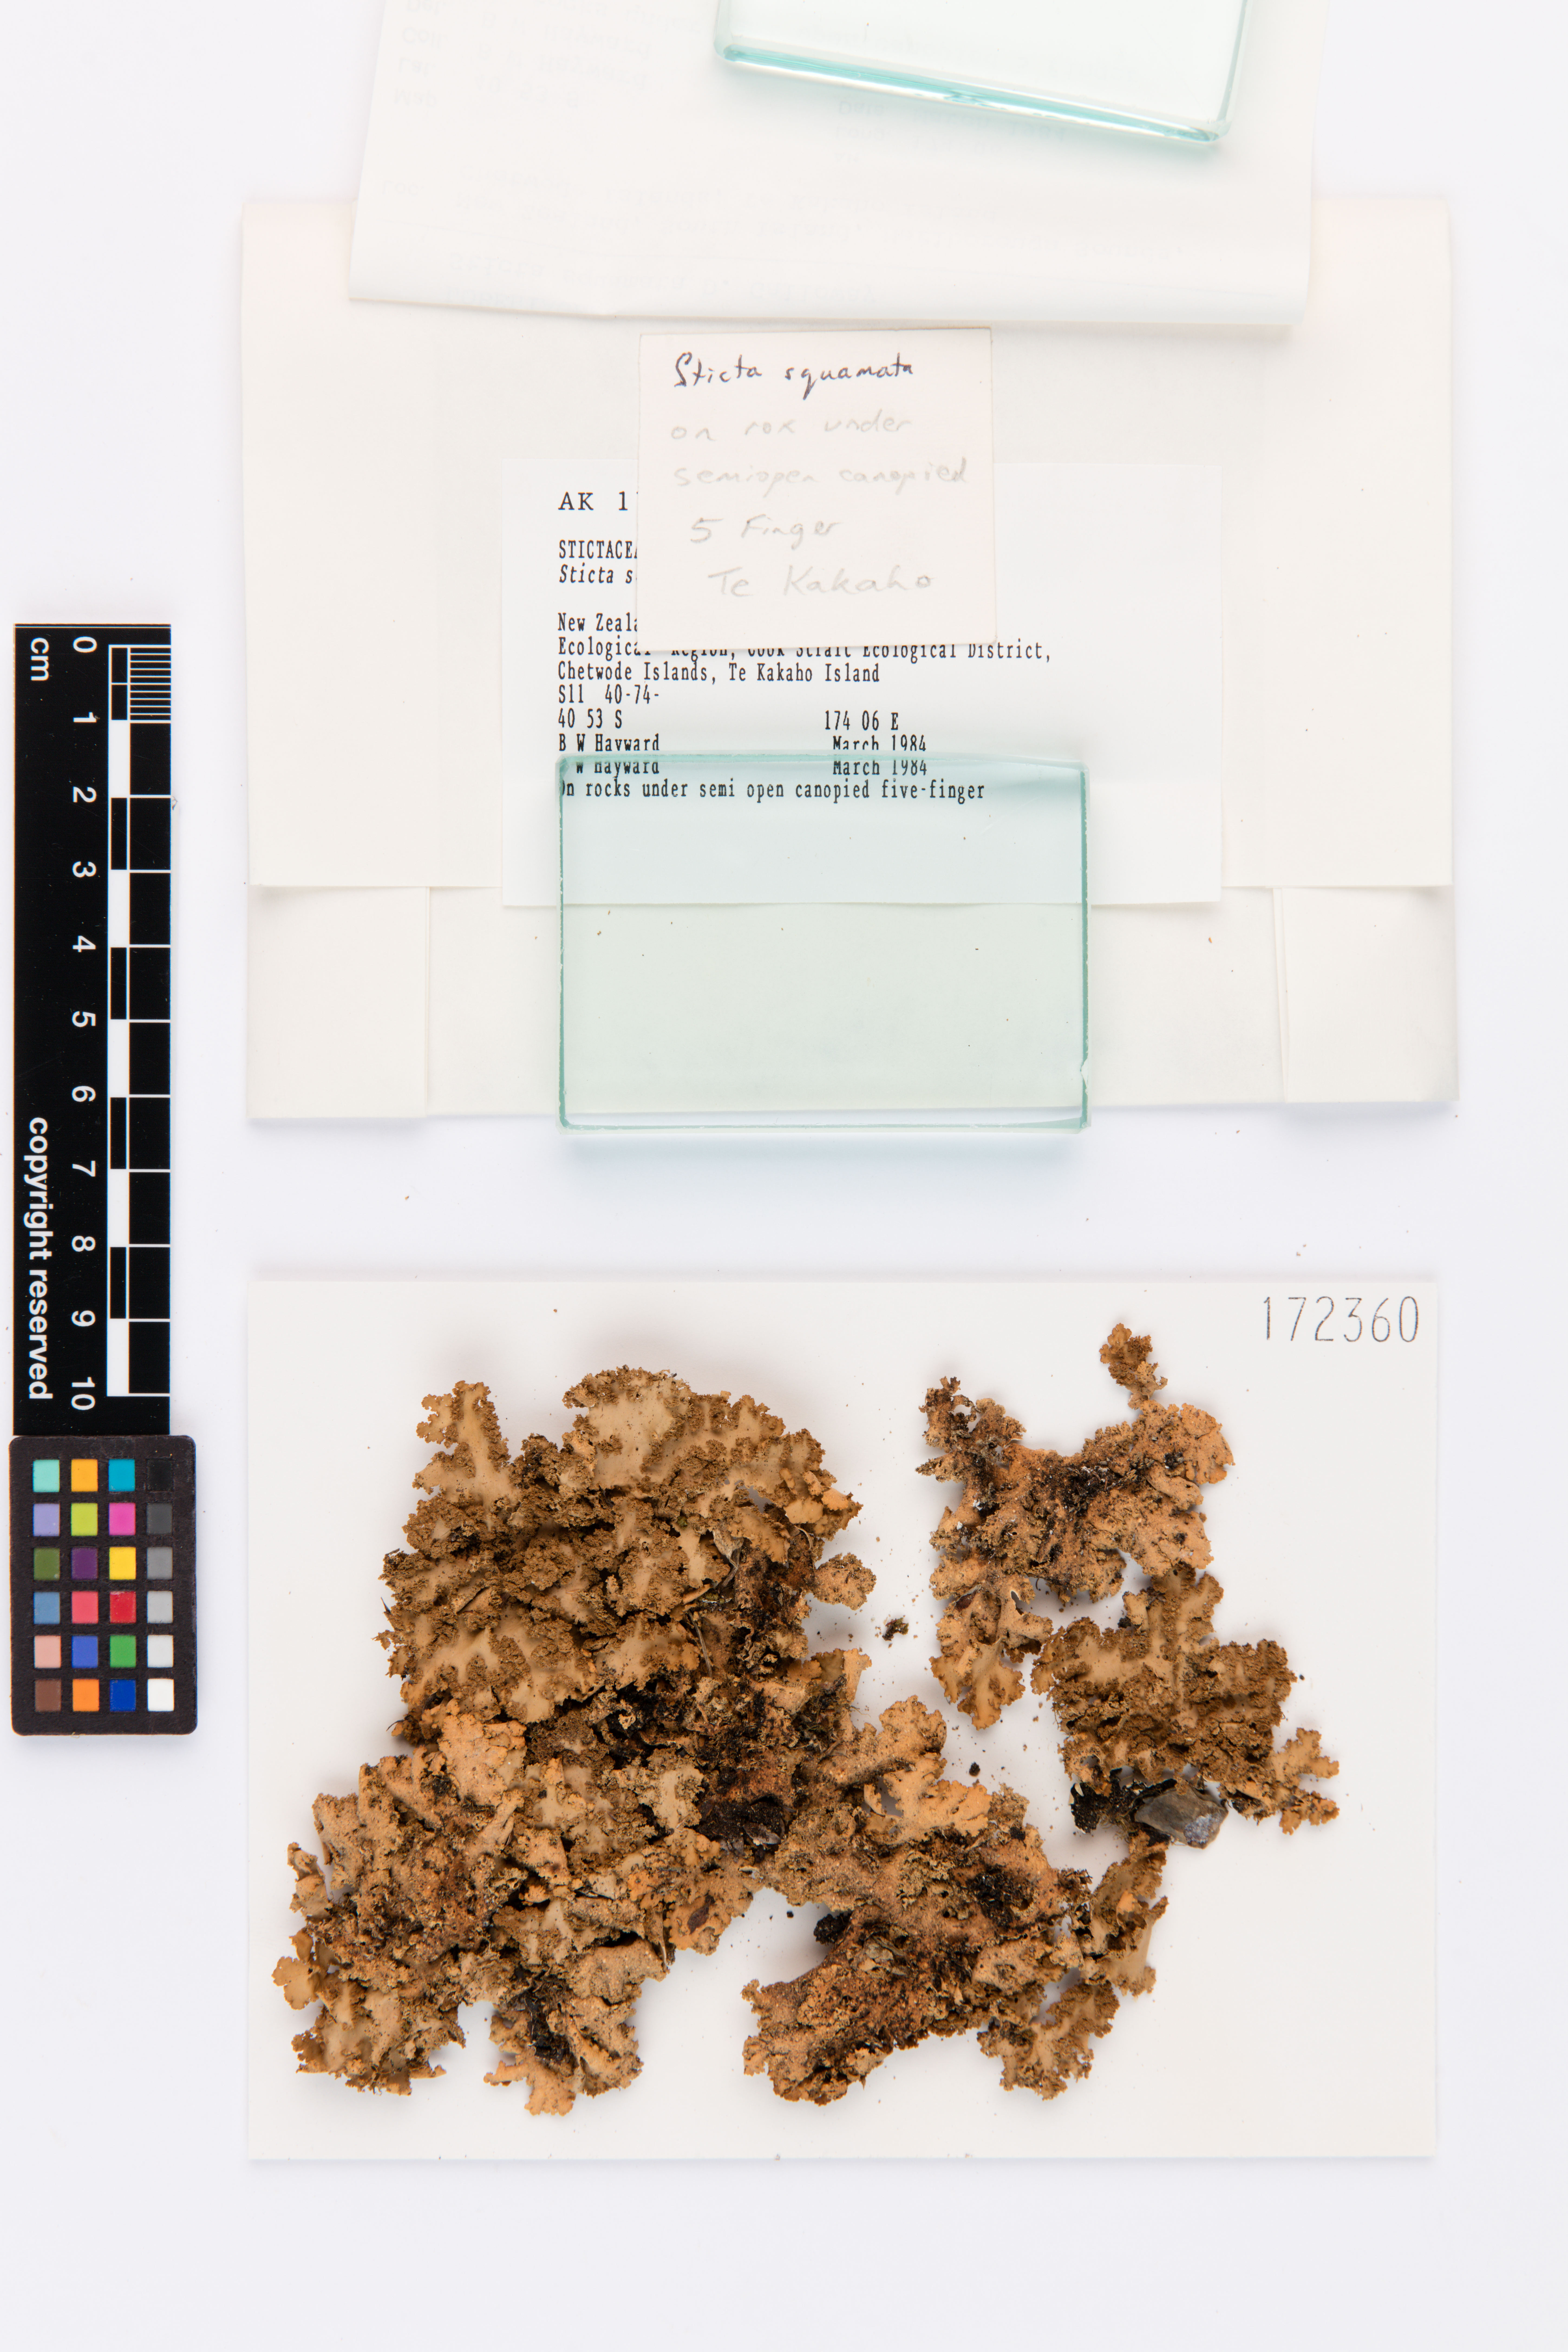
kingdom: Fungi
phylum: Ascomycota
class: Lecanoromycetes
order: Peltigerales
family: Lobariaceae
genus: Sticta
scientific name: Sticta squamata
